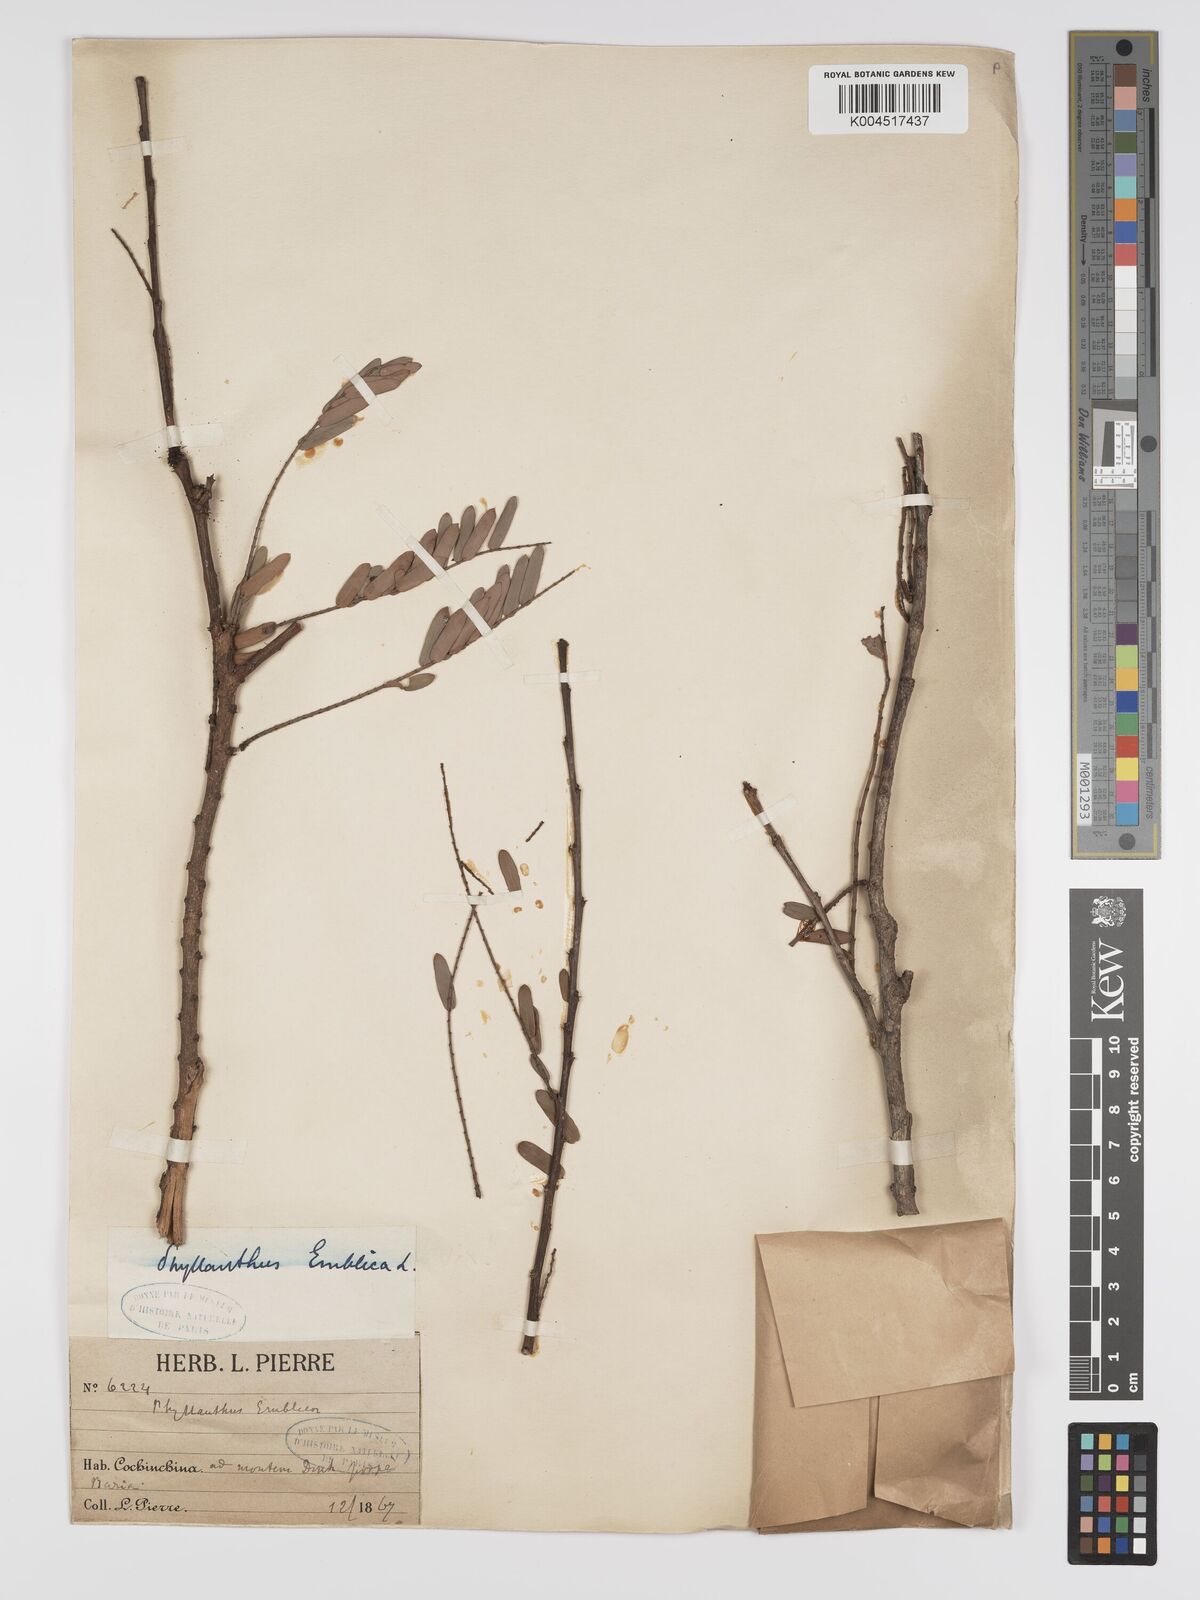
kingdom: Plantae
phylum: Tracheophyta
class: Magnoliopsida
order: Malpighiales
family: Phyllanthaceae
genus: Phyllanthus
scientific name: Phyllanthus emblica
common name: Indian gooseberry
